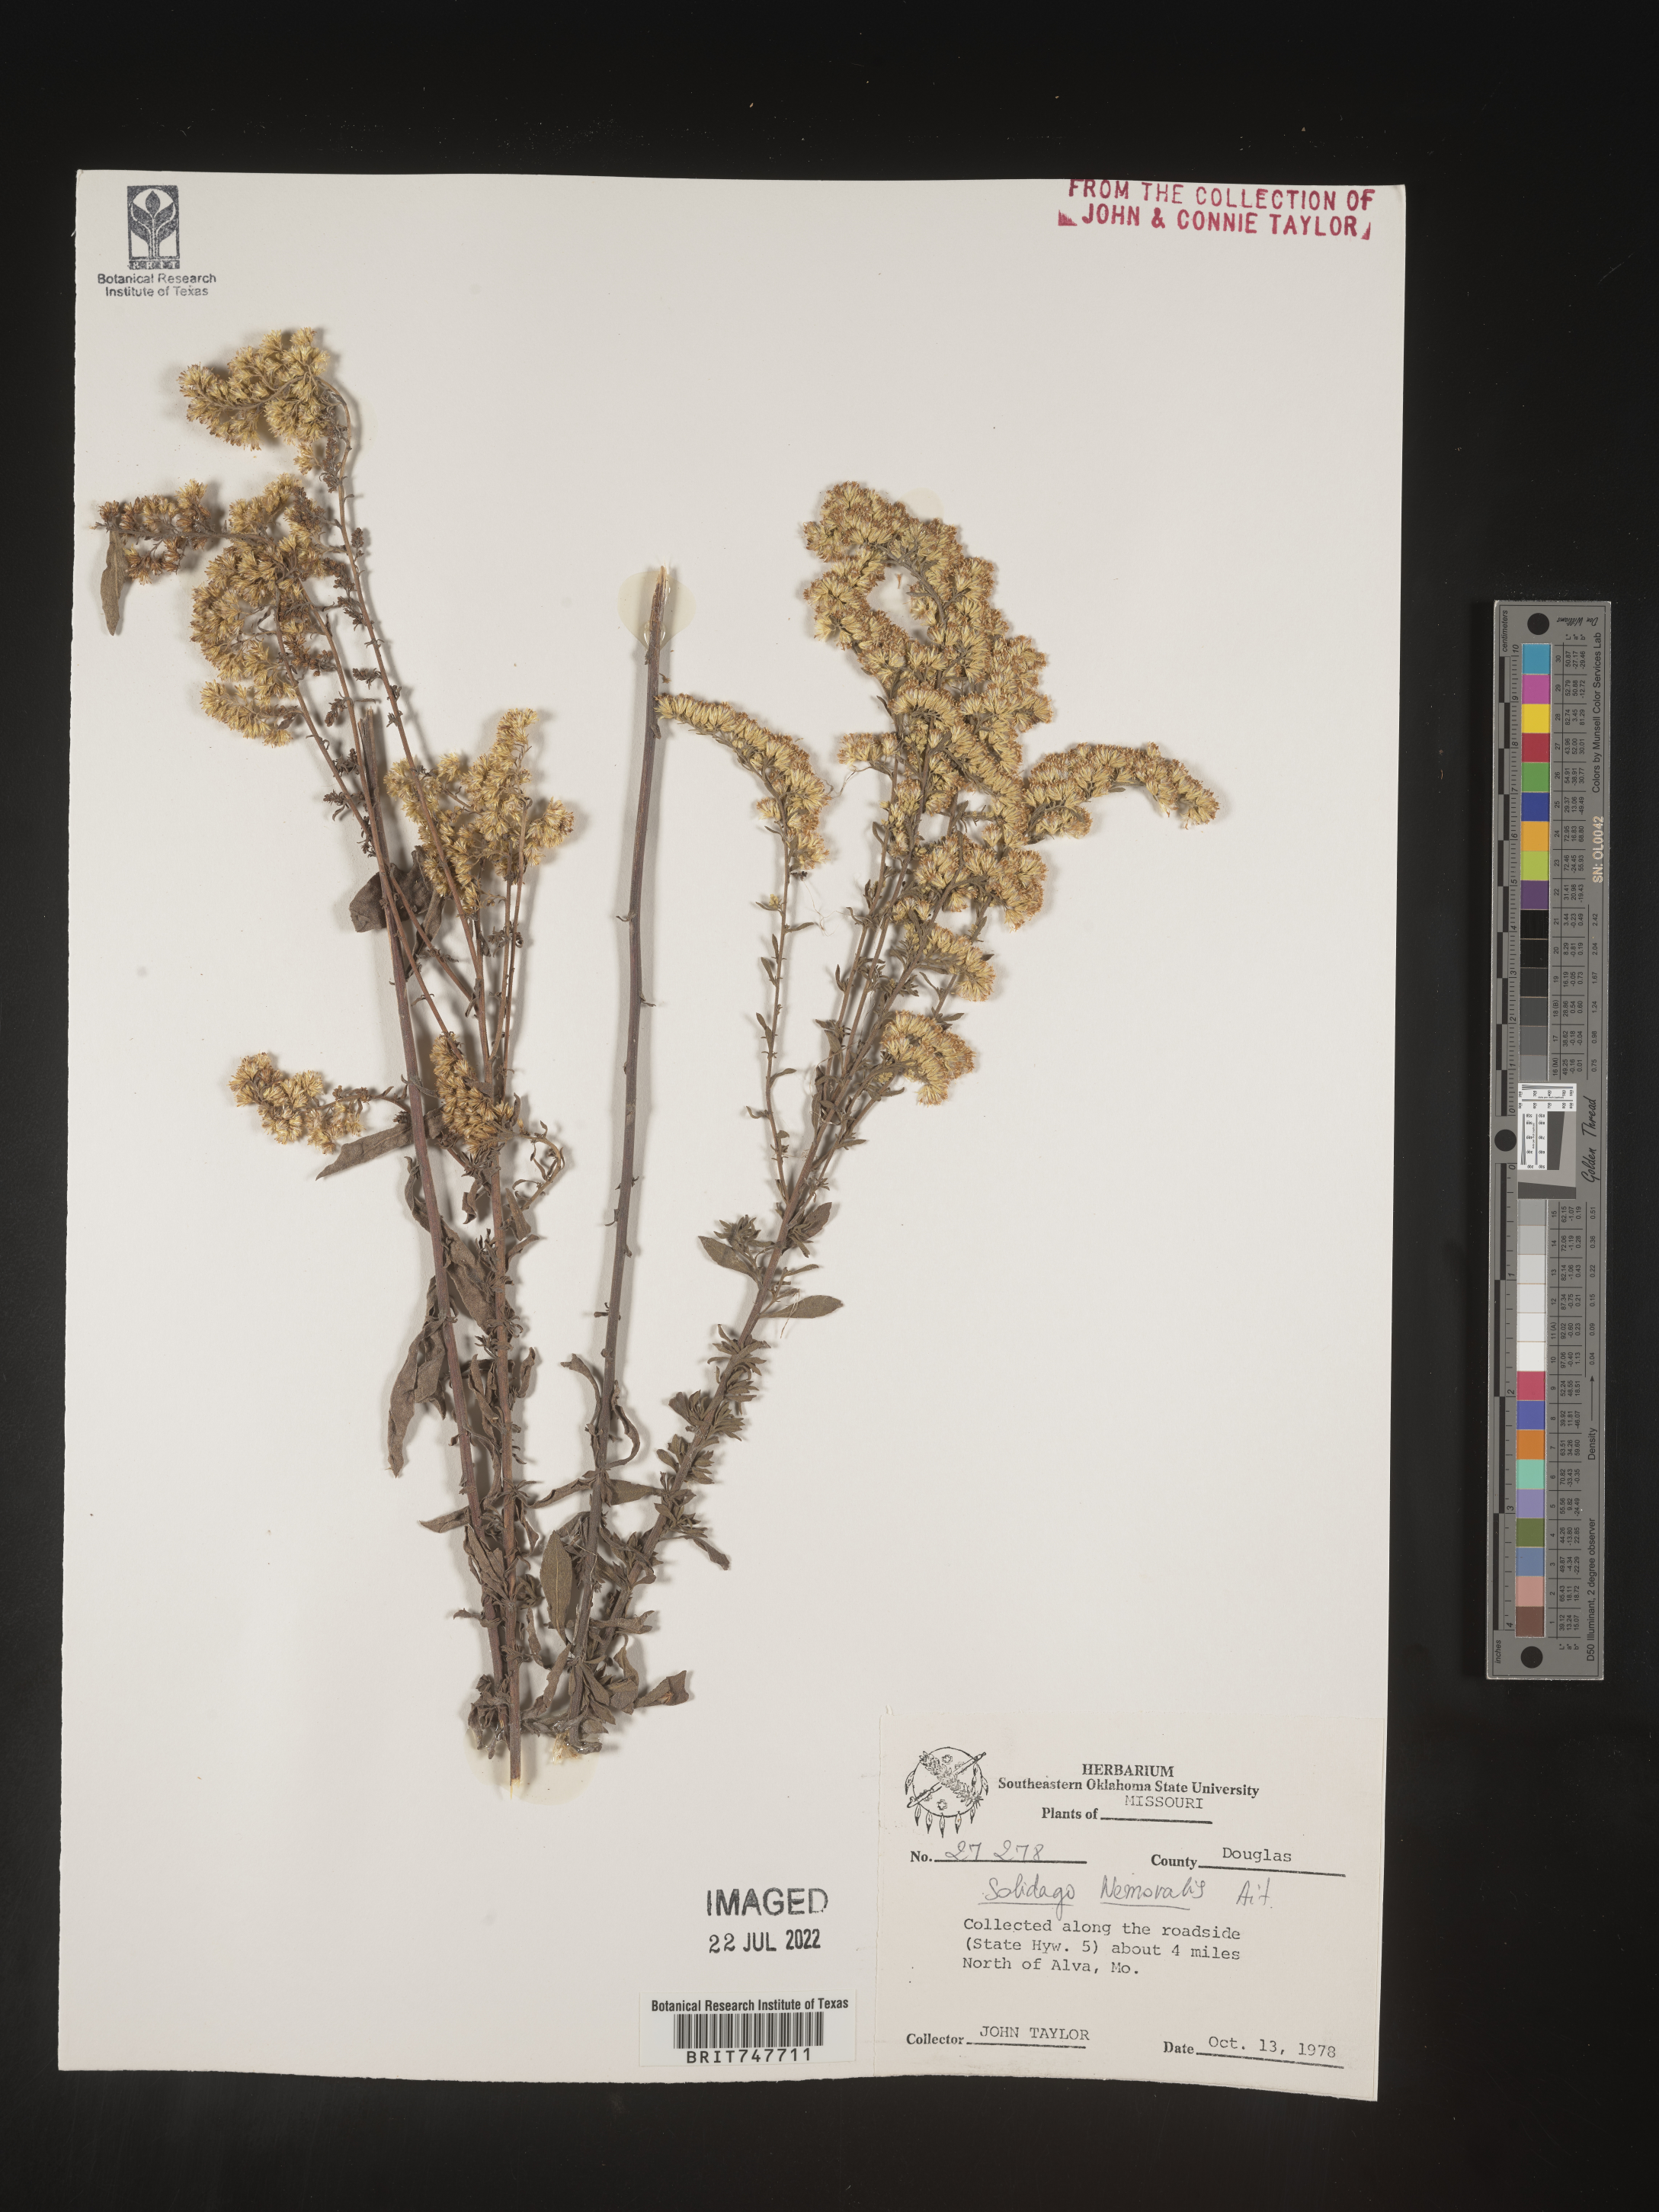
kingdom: Plantae
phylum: Tracheophyta
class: Magnoliopsida
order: Asterales
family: Asteraceae
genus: Solidago
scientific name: Solidago nemoralis
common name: Grey goldenrod
